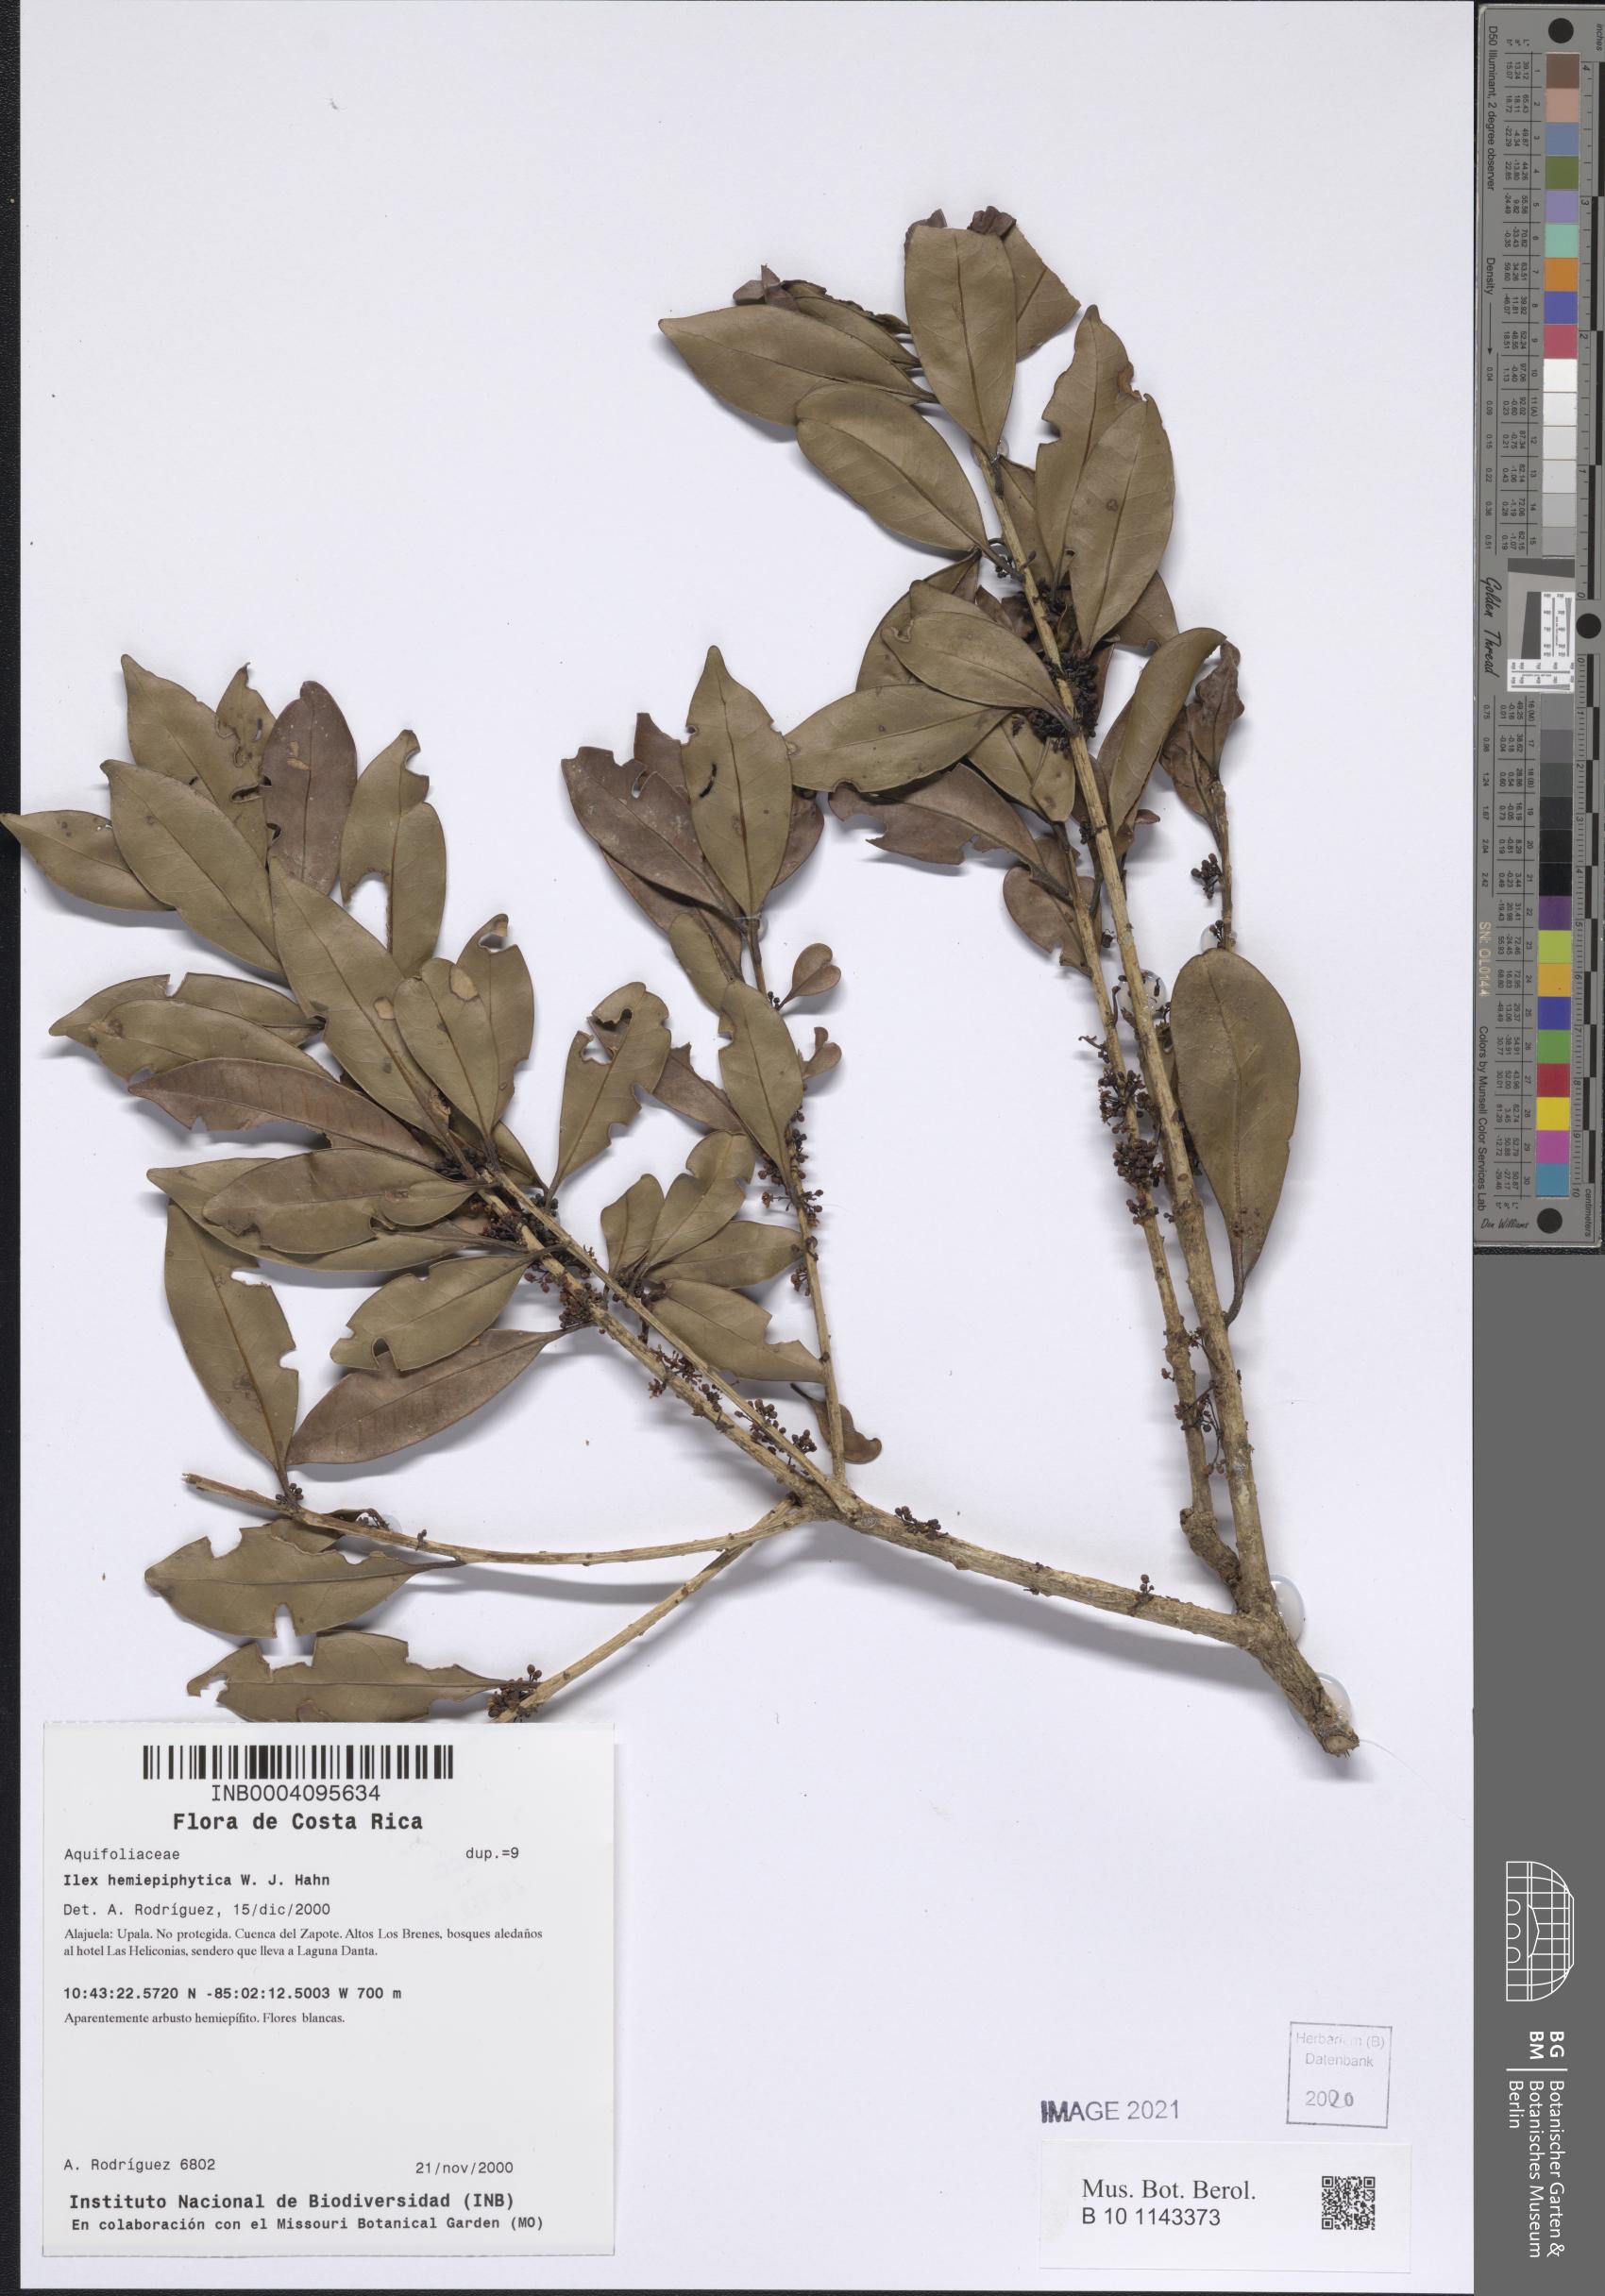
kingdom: Plantae
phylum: Tracheophyta
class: Magnoliopsida
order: Aquifoliales
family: Aquifoliaceae
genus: Ilex
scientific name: Ilex hemiepiphytica
